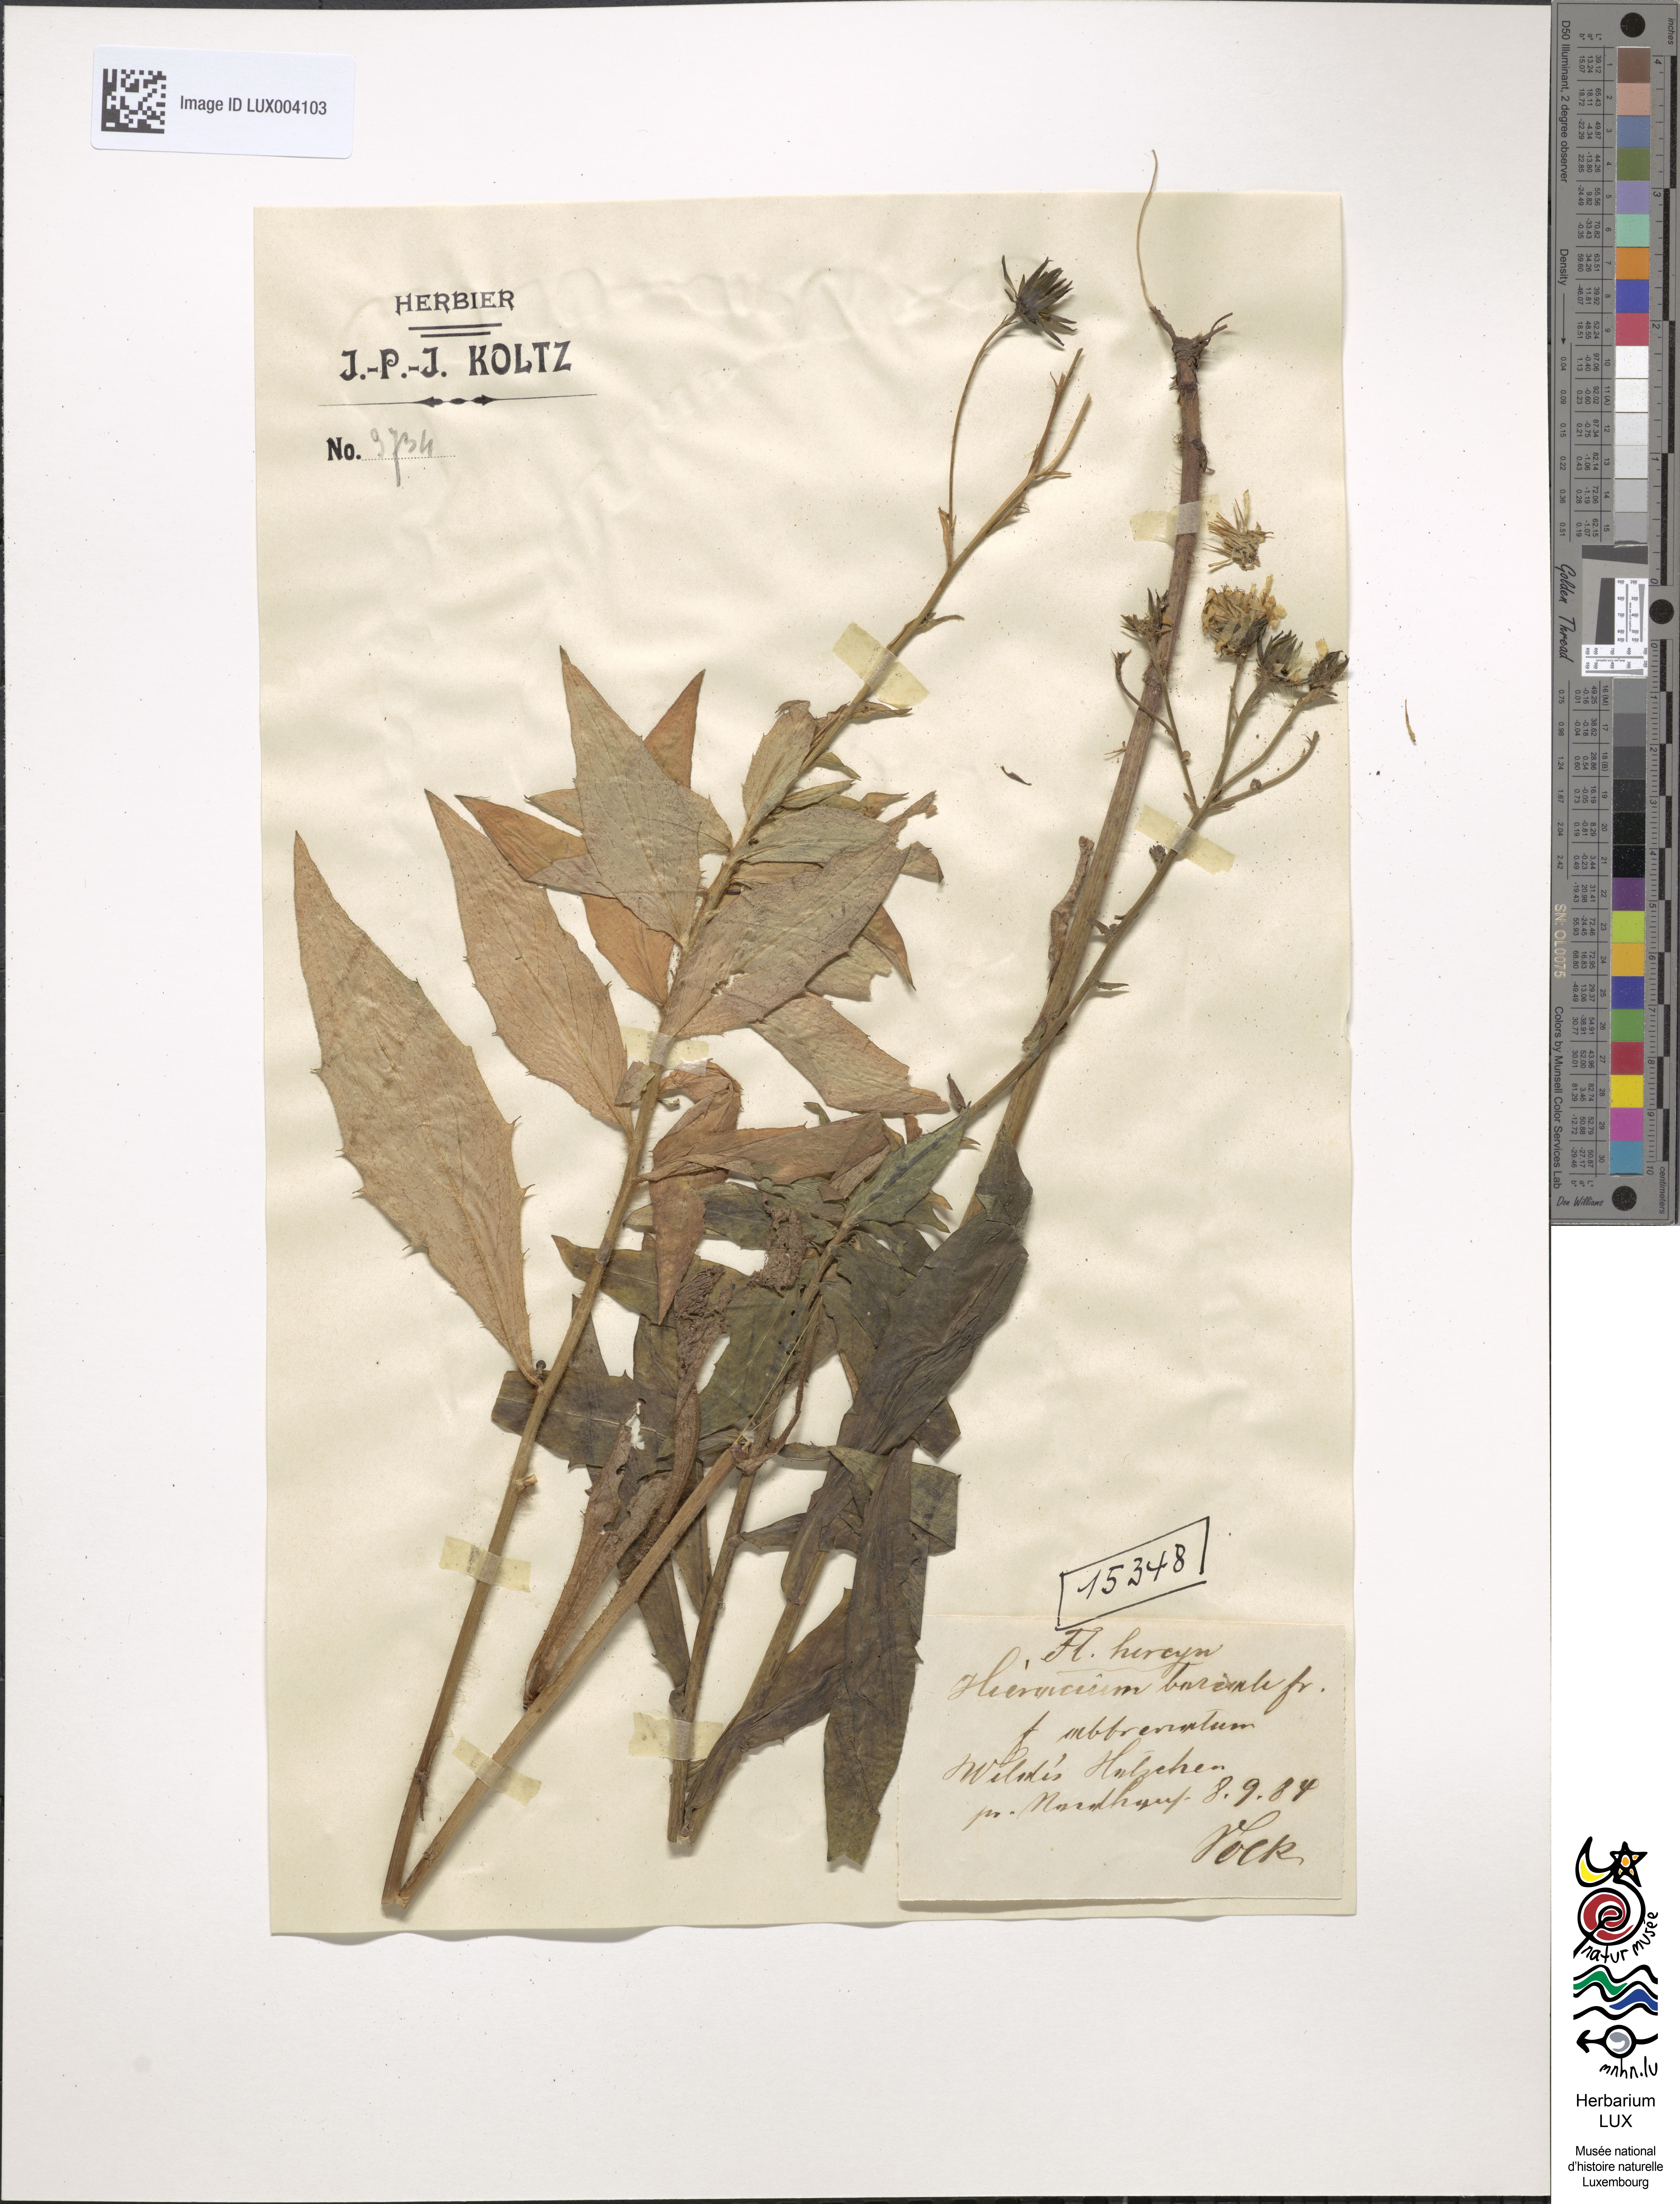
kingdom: Plantae
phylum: Tracheophyta
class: Magnoliopsida
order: Asterales
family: Asteraceae
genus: Hieracium
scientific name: Hieracium sabaudum
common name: New england hawkweed
